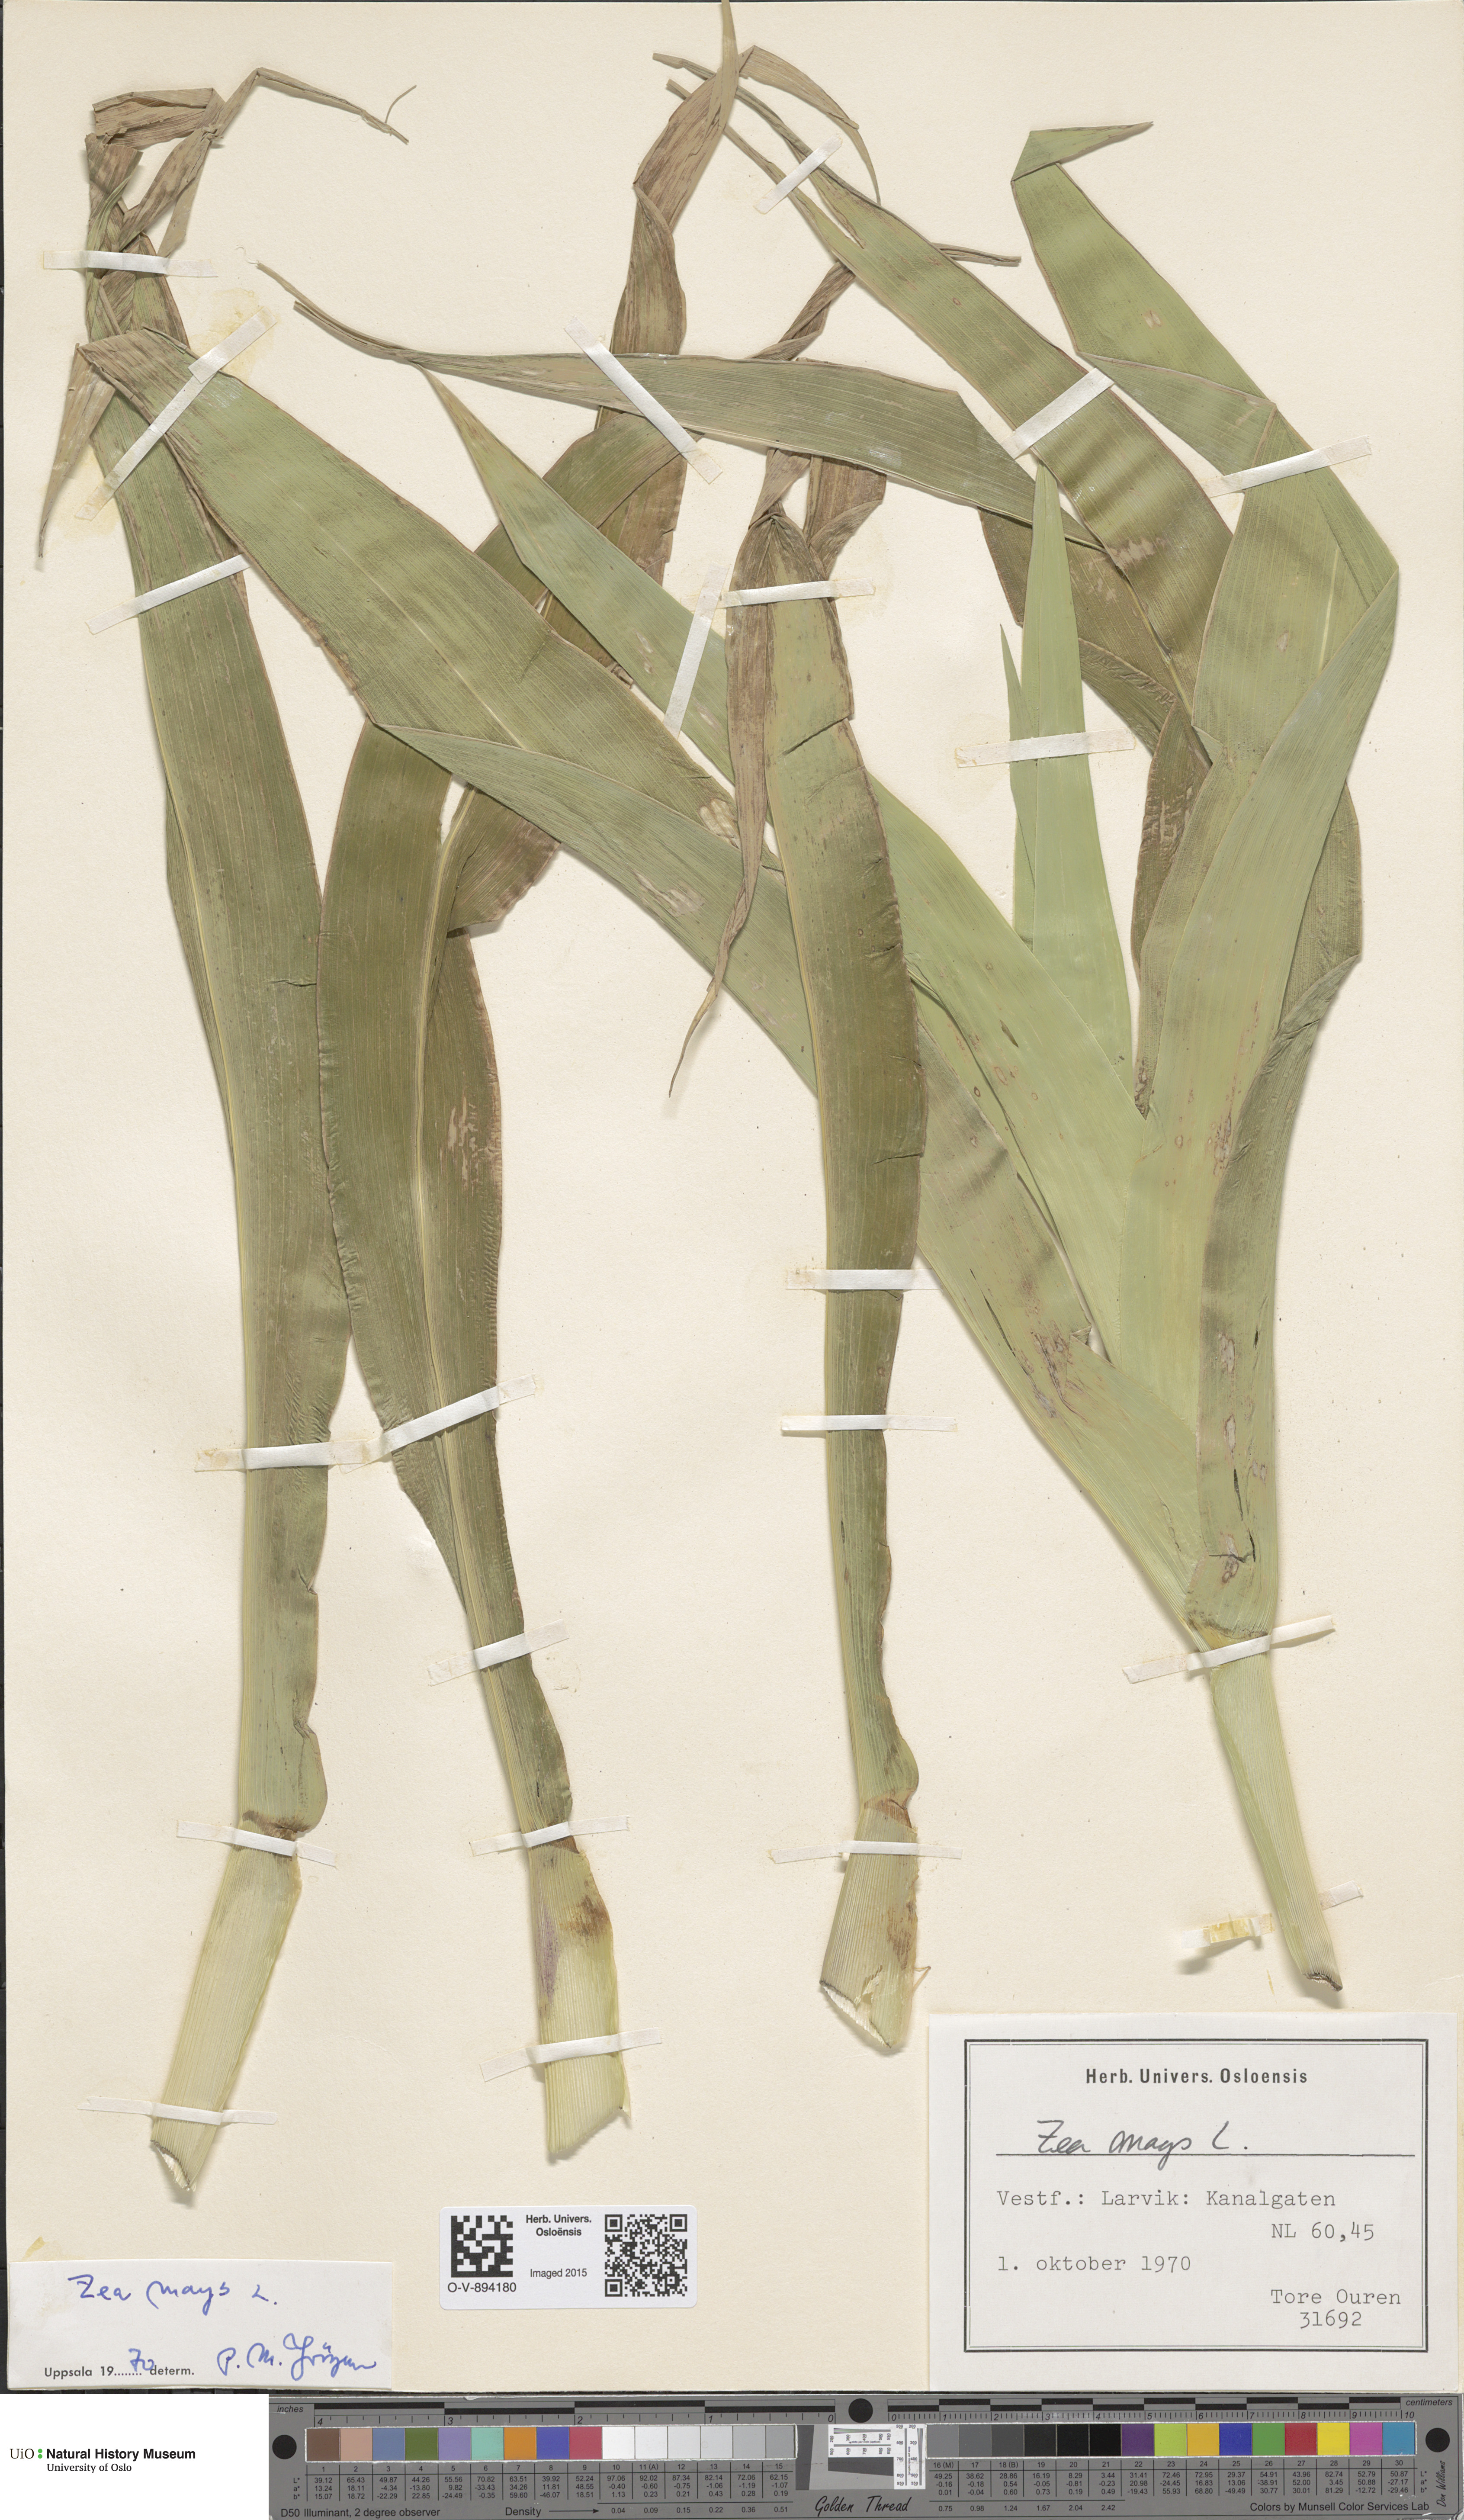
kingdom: Plantae
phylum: Tracheophyta
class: Liliopsida
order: Poales
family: Poaceae
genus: Zea
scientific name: Zea mays
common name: Maize
